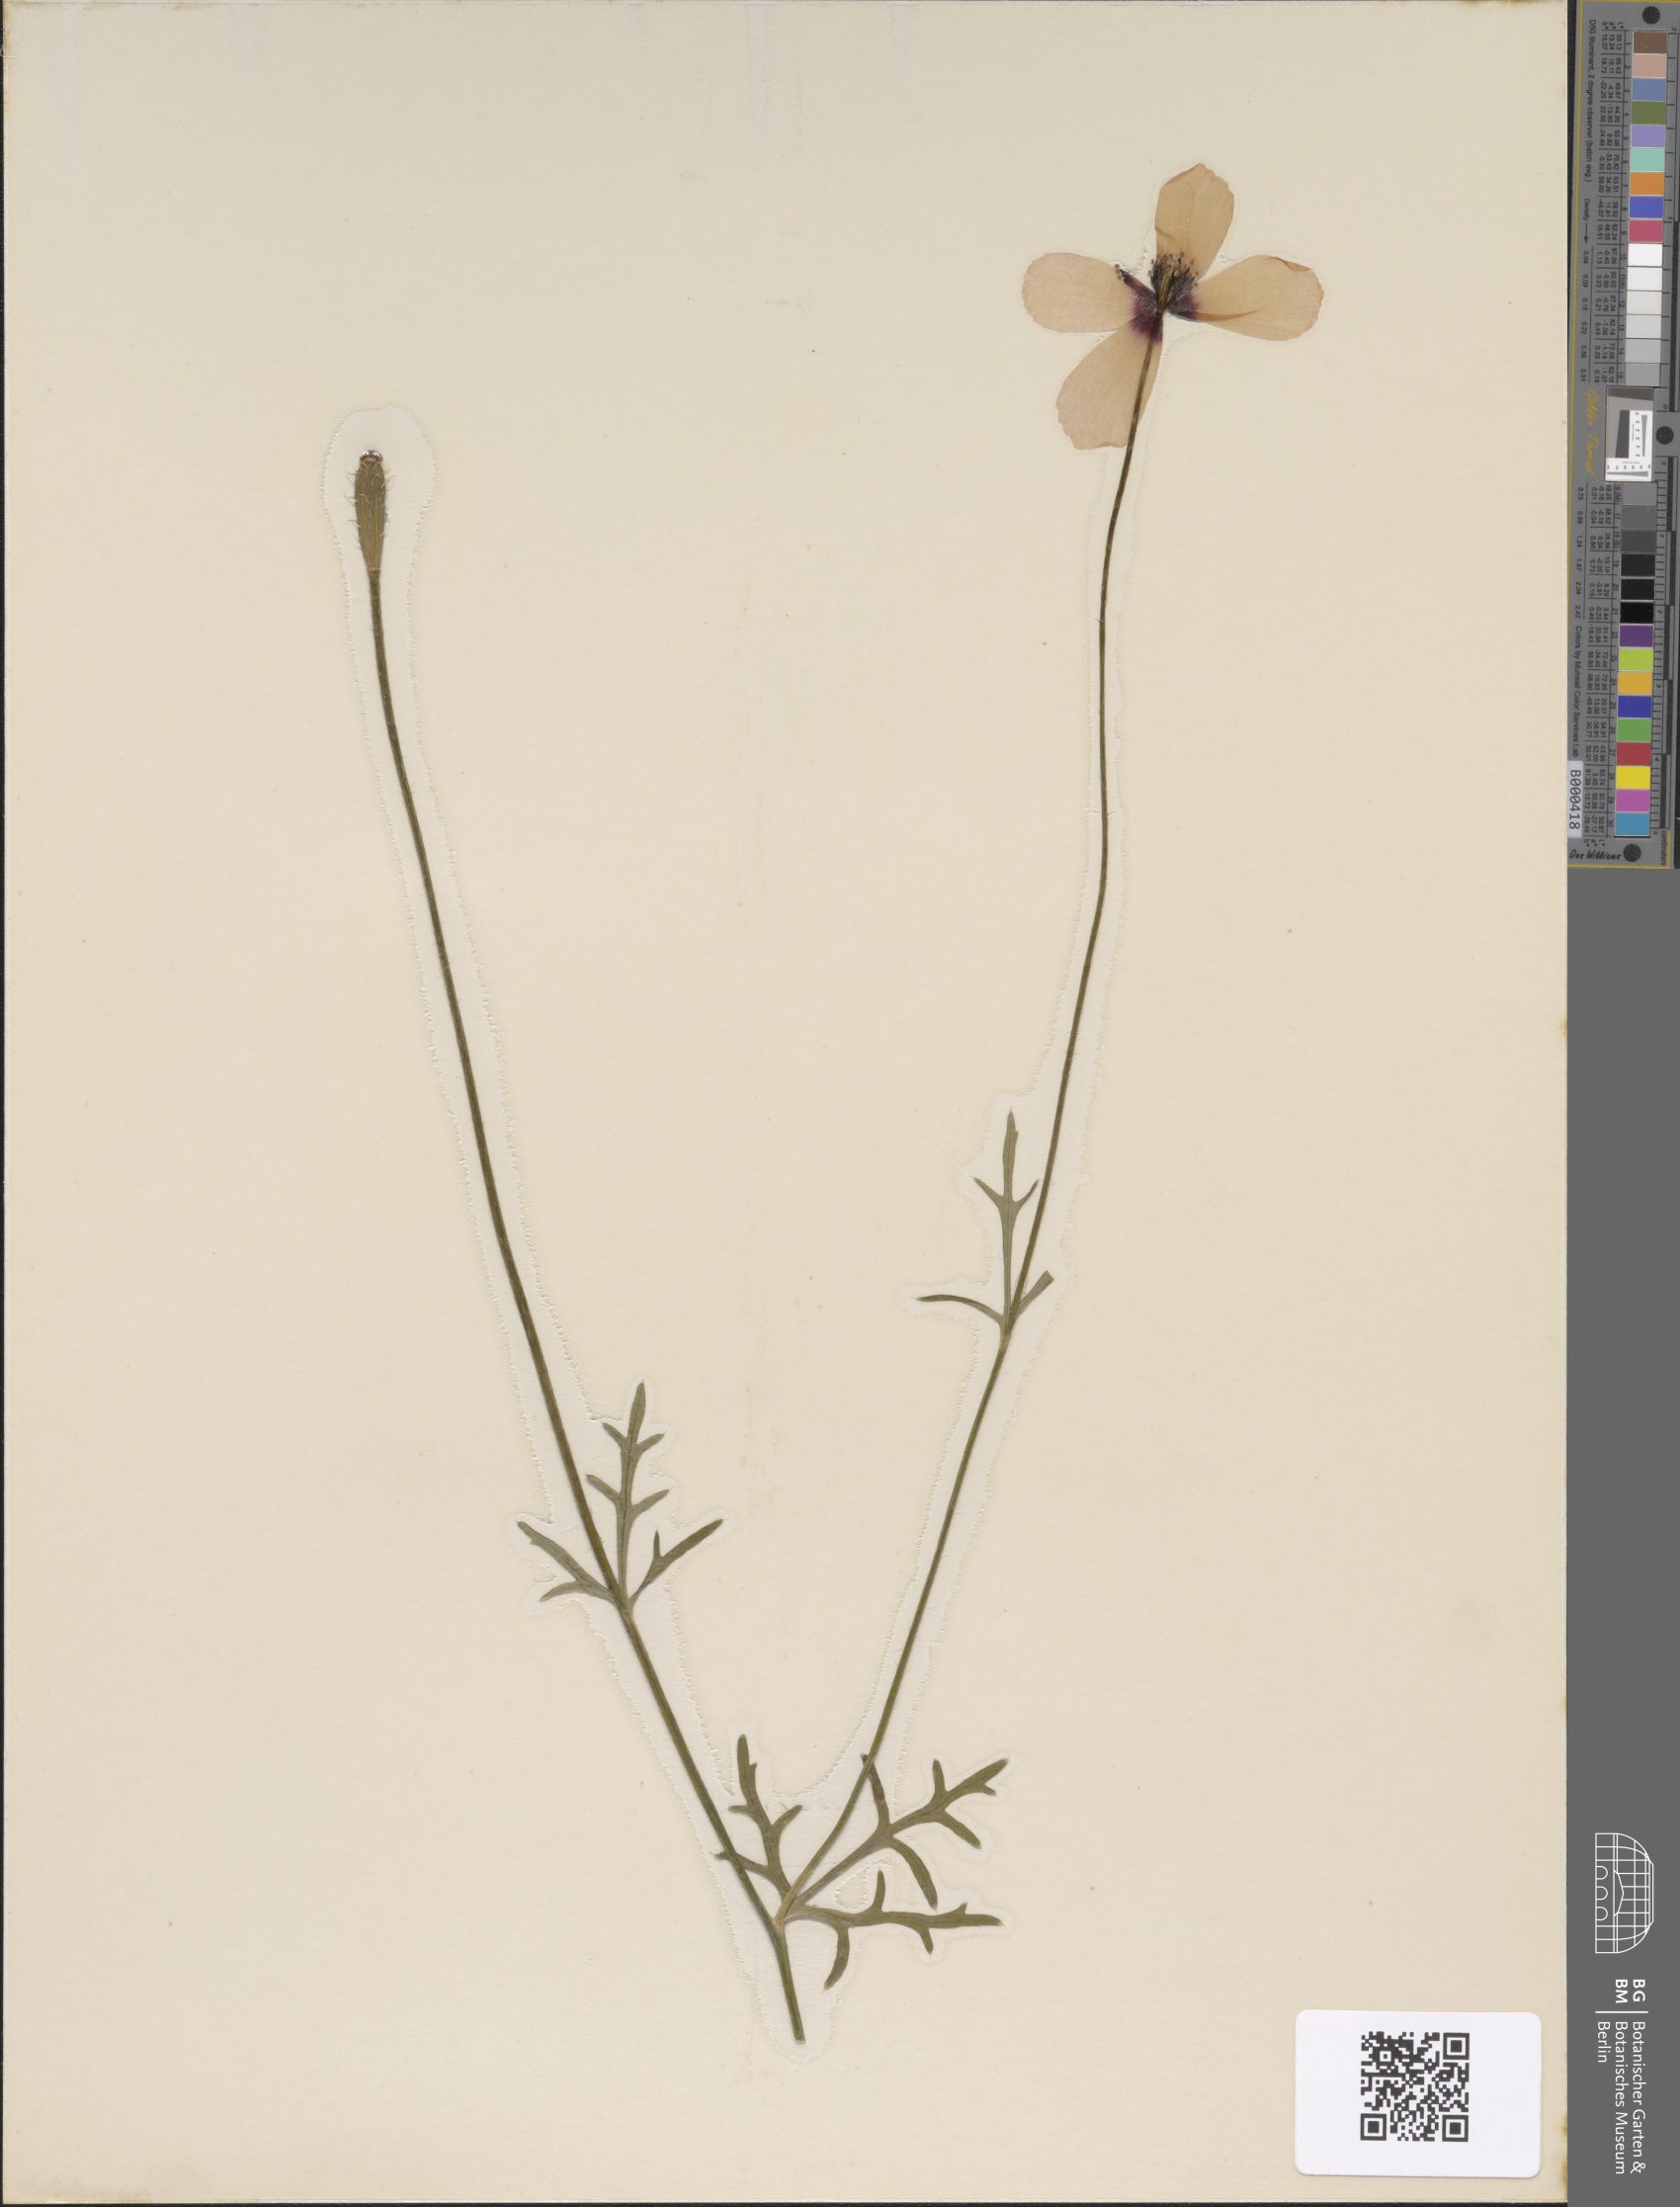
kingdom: Plantae
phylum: Tracheophyta
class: Magnoliopsida
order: Ranunculales
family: Papaveraceae
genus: Roemeria
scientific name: Roemeria argemone
